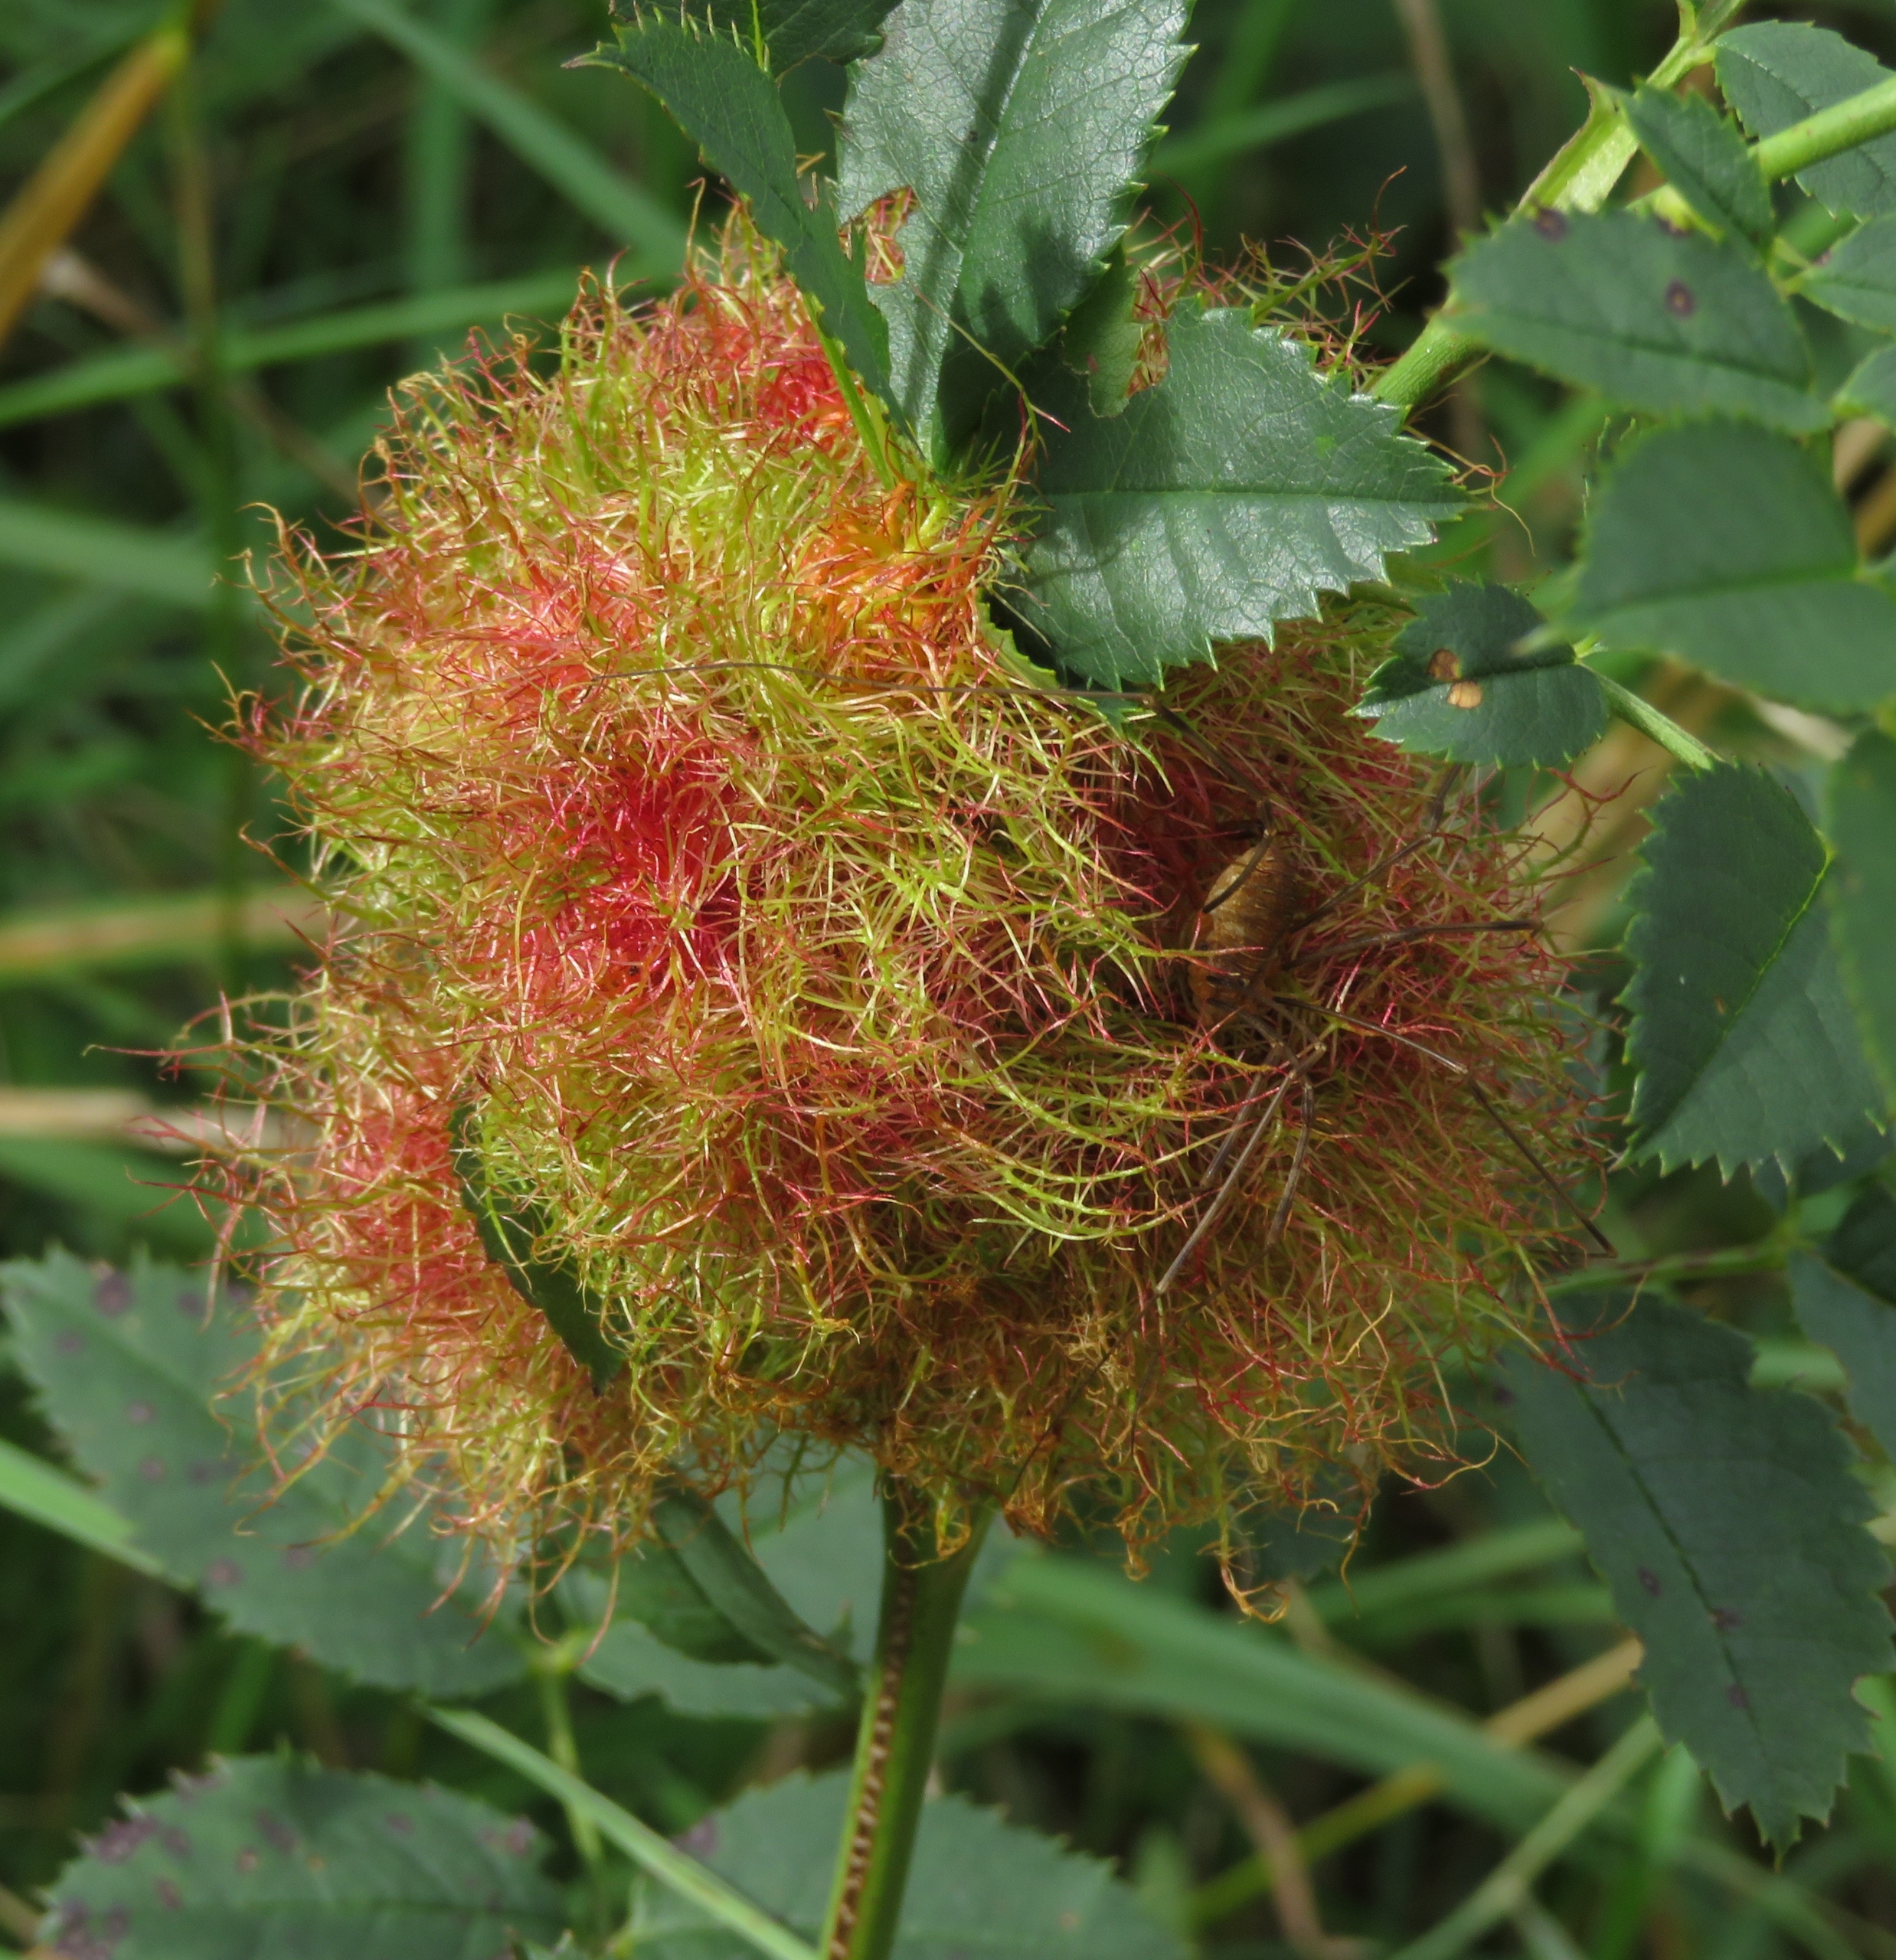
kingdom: Animalia
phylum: Arthropoda
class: Insecta
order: Hymenoptera
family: Cynipidae
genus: Diplolepis
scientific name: Diplolepis rosae
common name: Bedeguargalhveps
